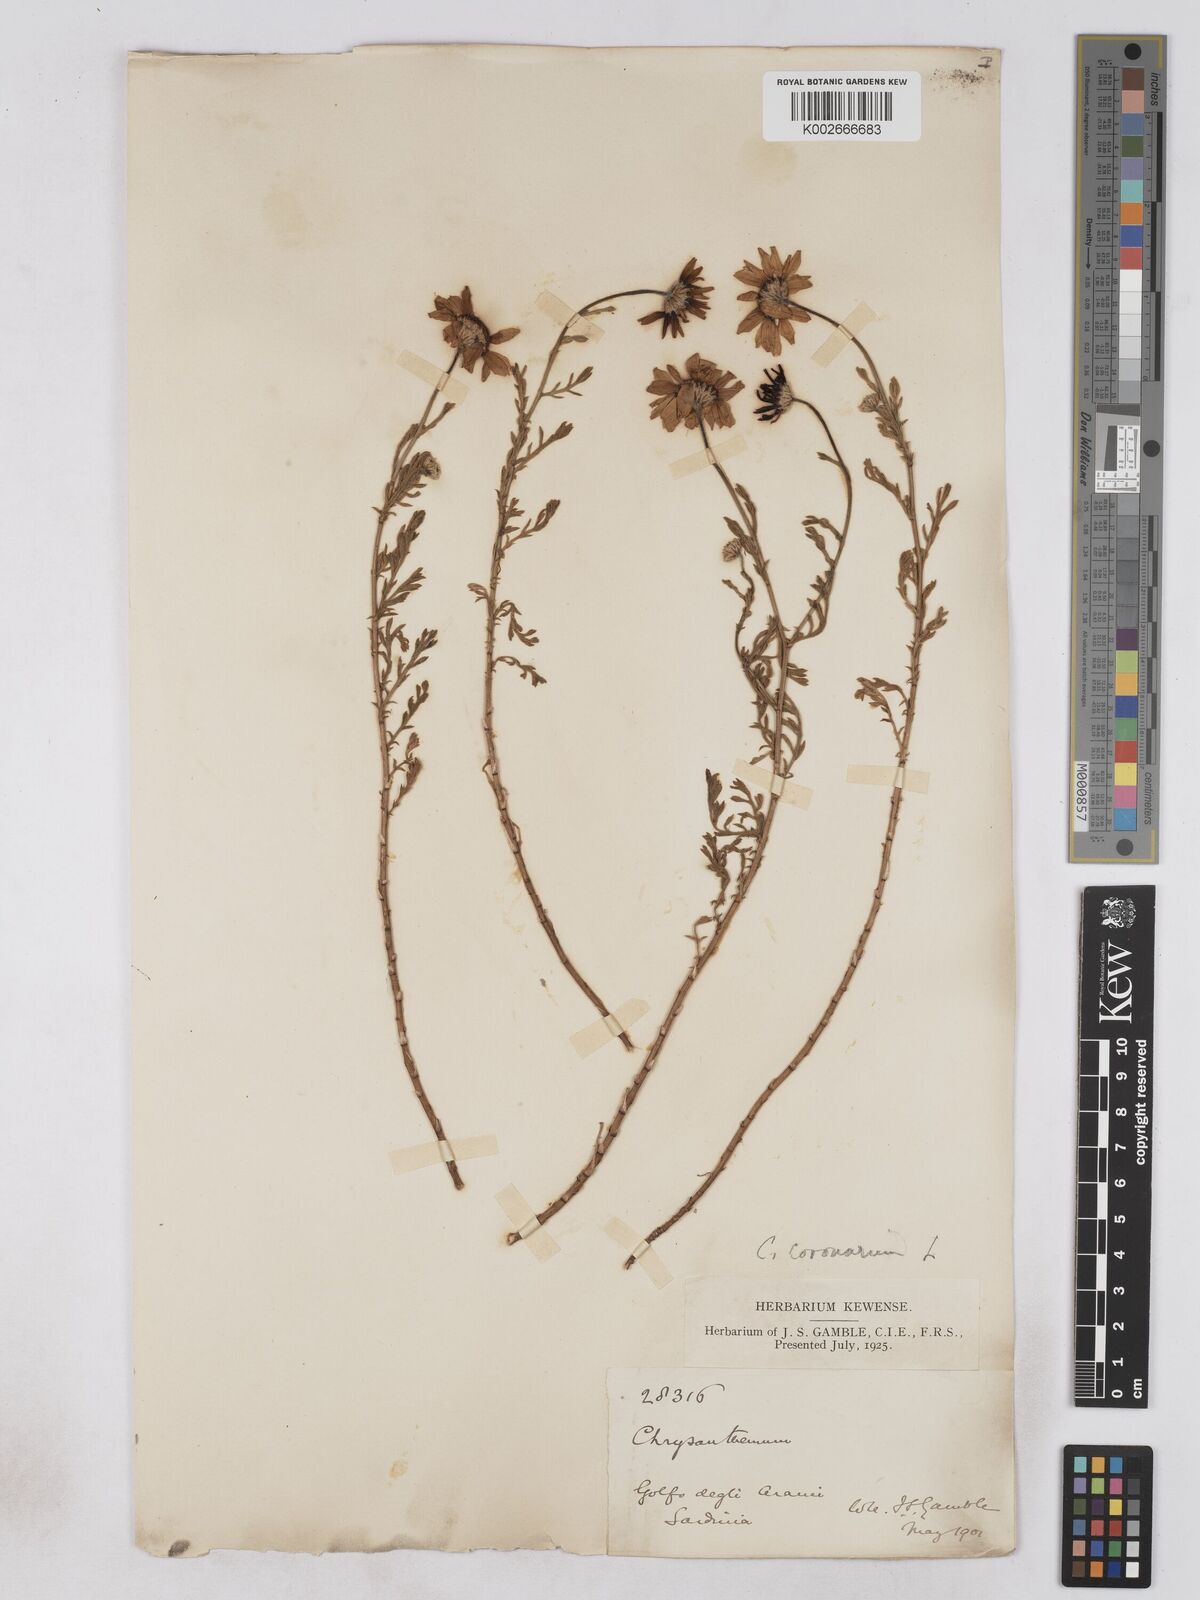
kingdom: Plantae
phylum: Tracheophyta
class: Magnoliopsida
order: Asterales
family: Asteraceae
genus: Glebionis
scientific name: Glebionis coronaria
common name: Crowndaisy
